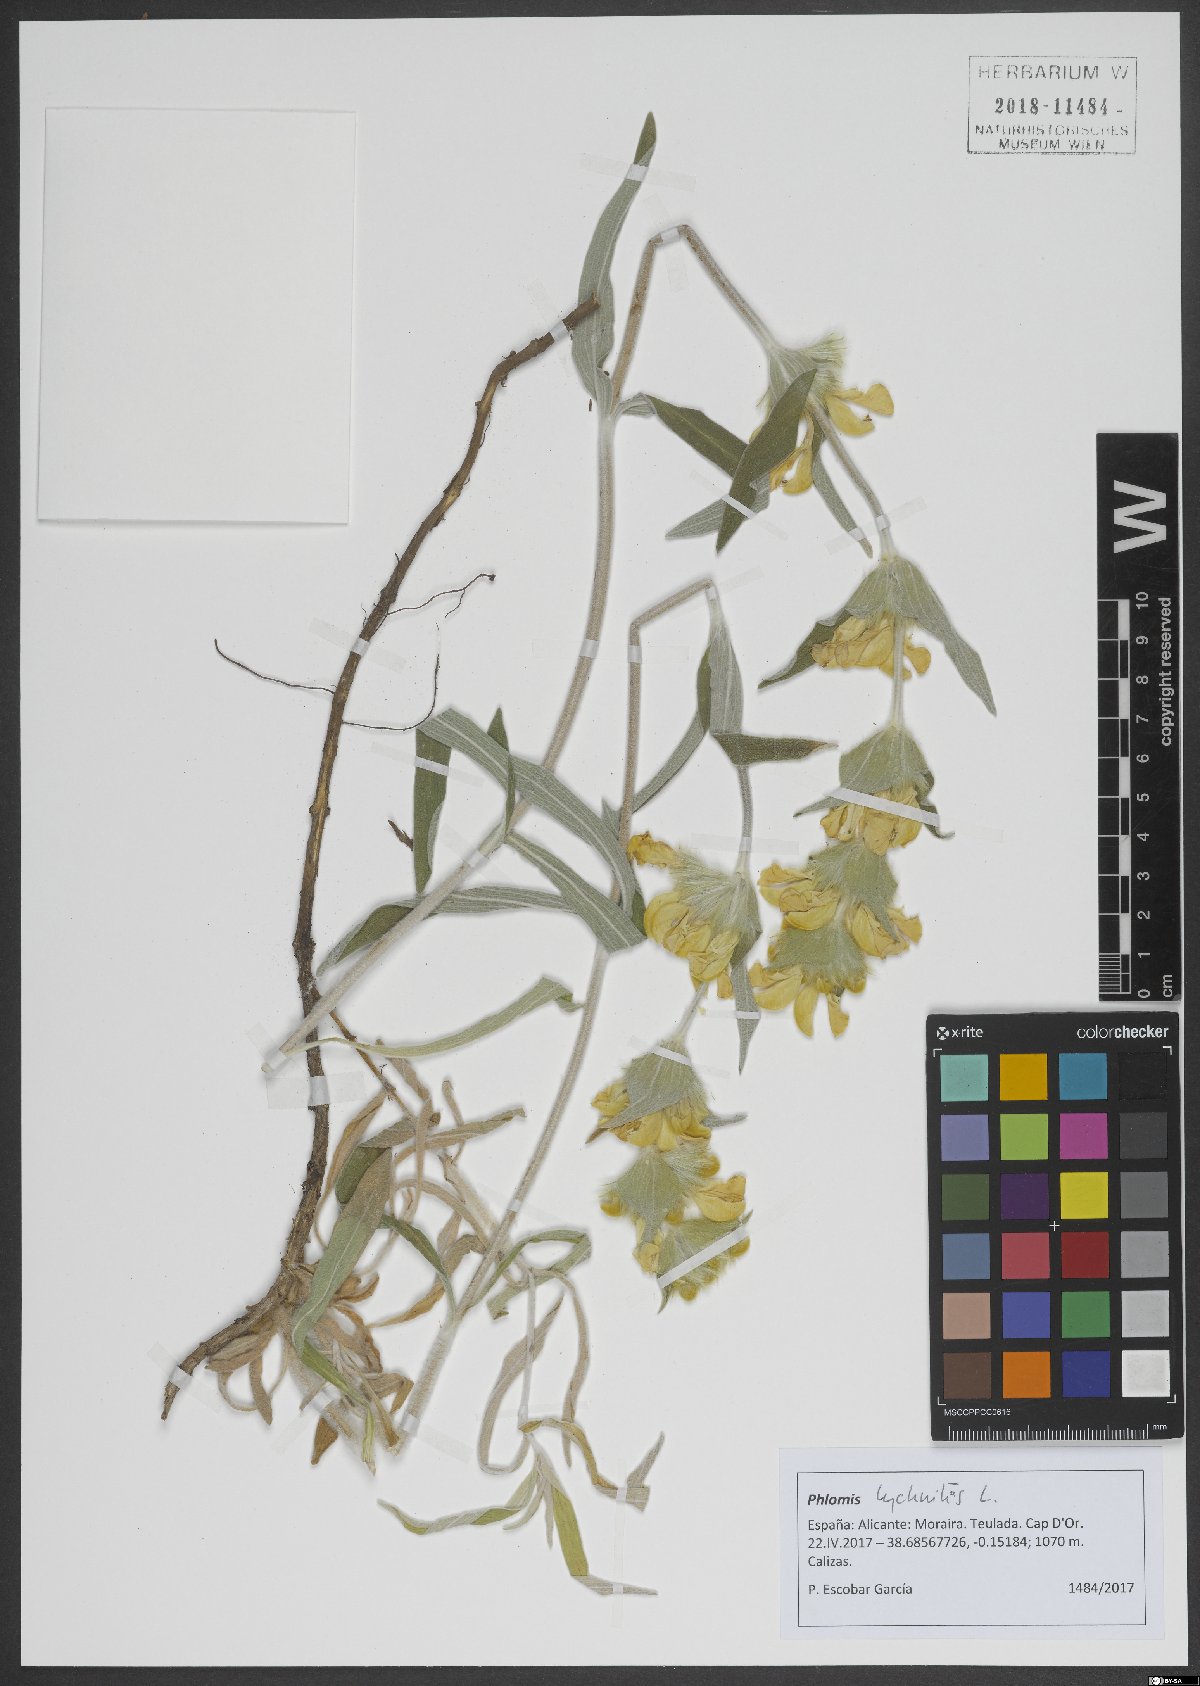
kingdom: Plantae
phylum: Tracheophyta
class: Magnoliopsida
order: Lamiales
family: Lamiaceae
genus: Phlomis
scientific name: Phlomis lychnitis
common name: Lampwickplant
